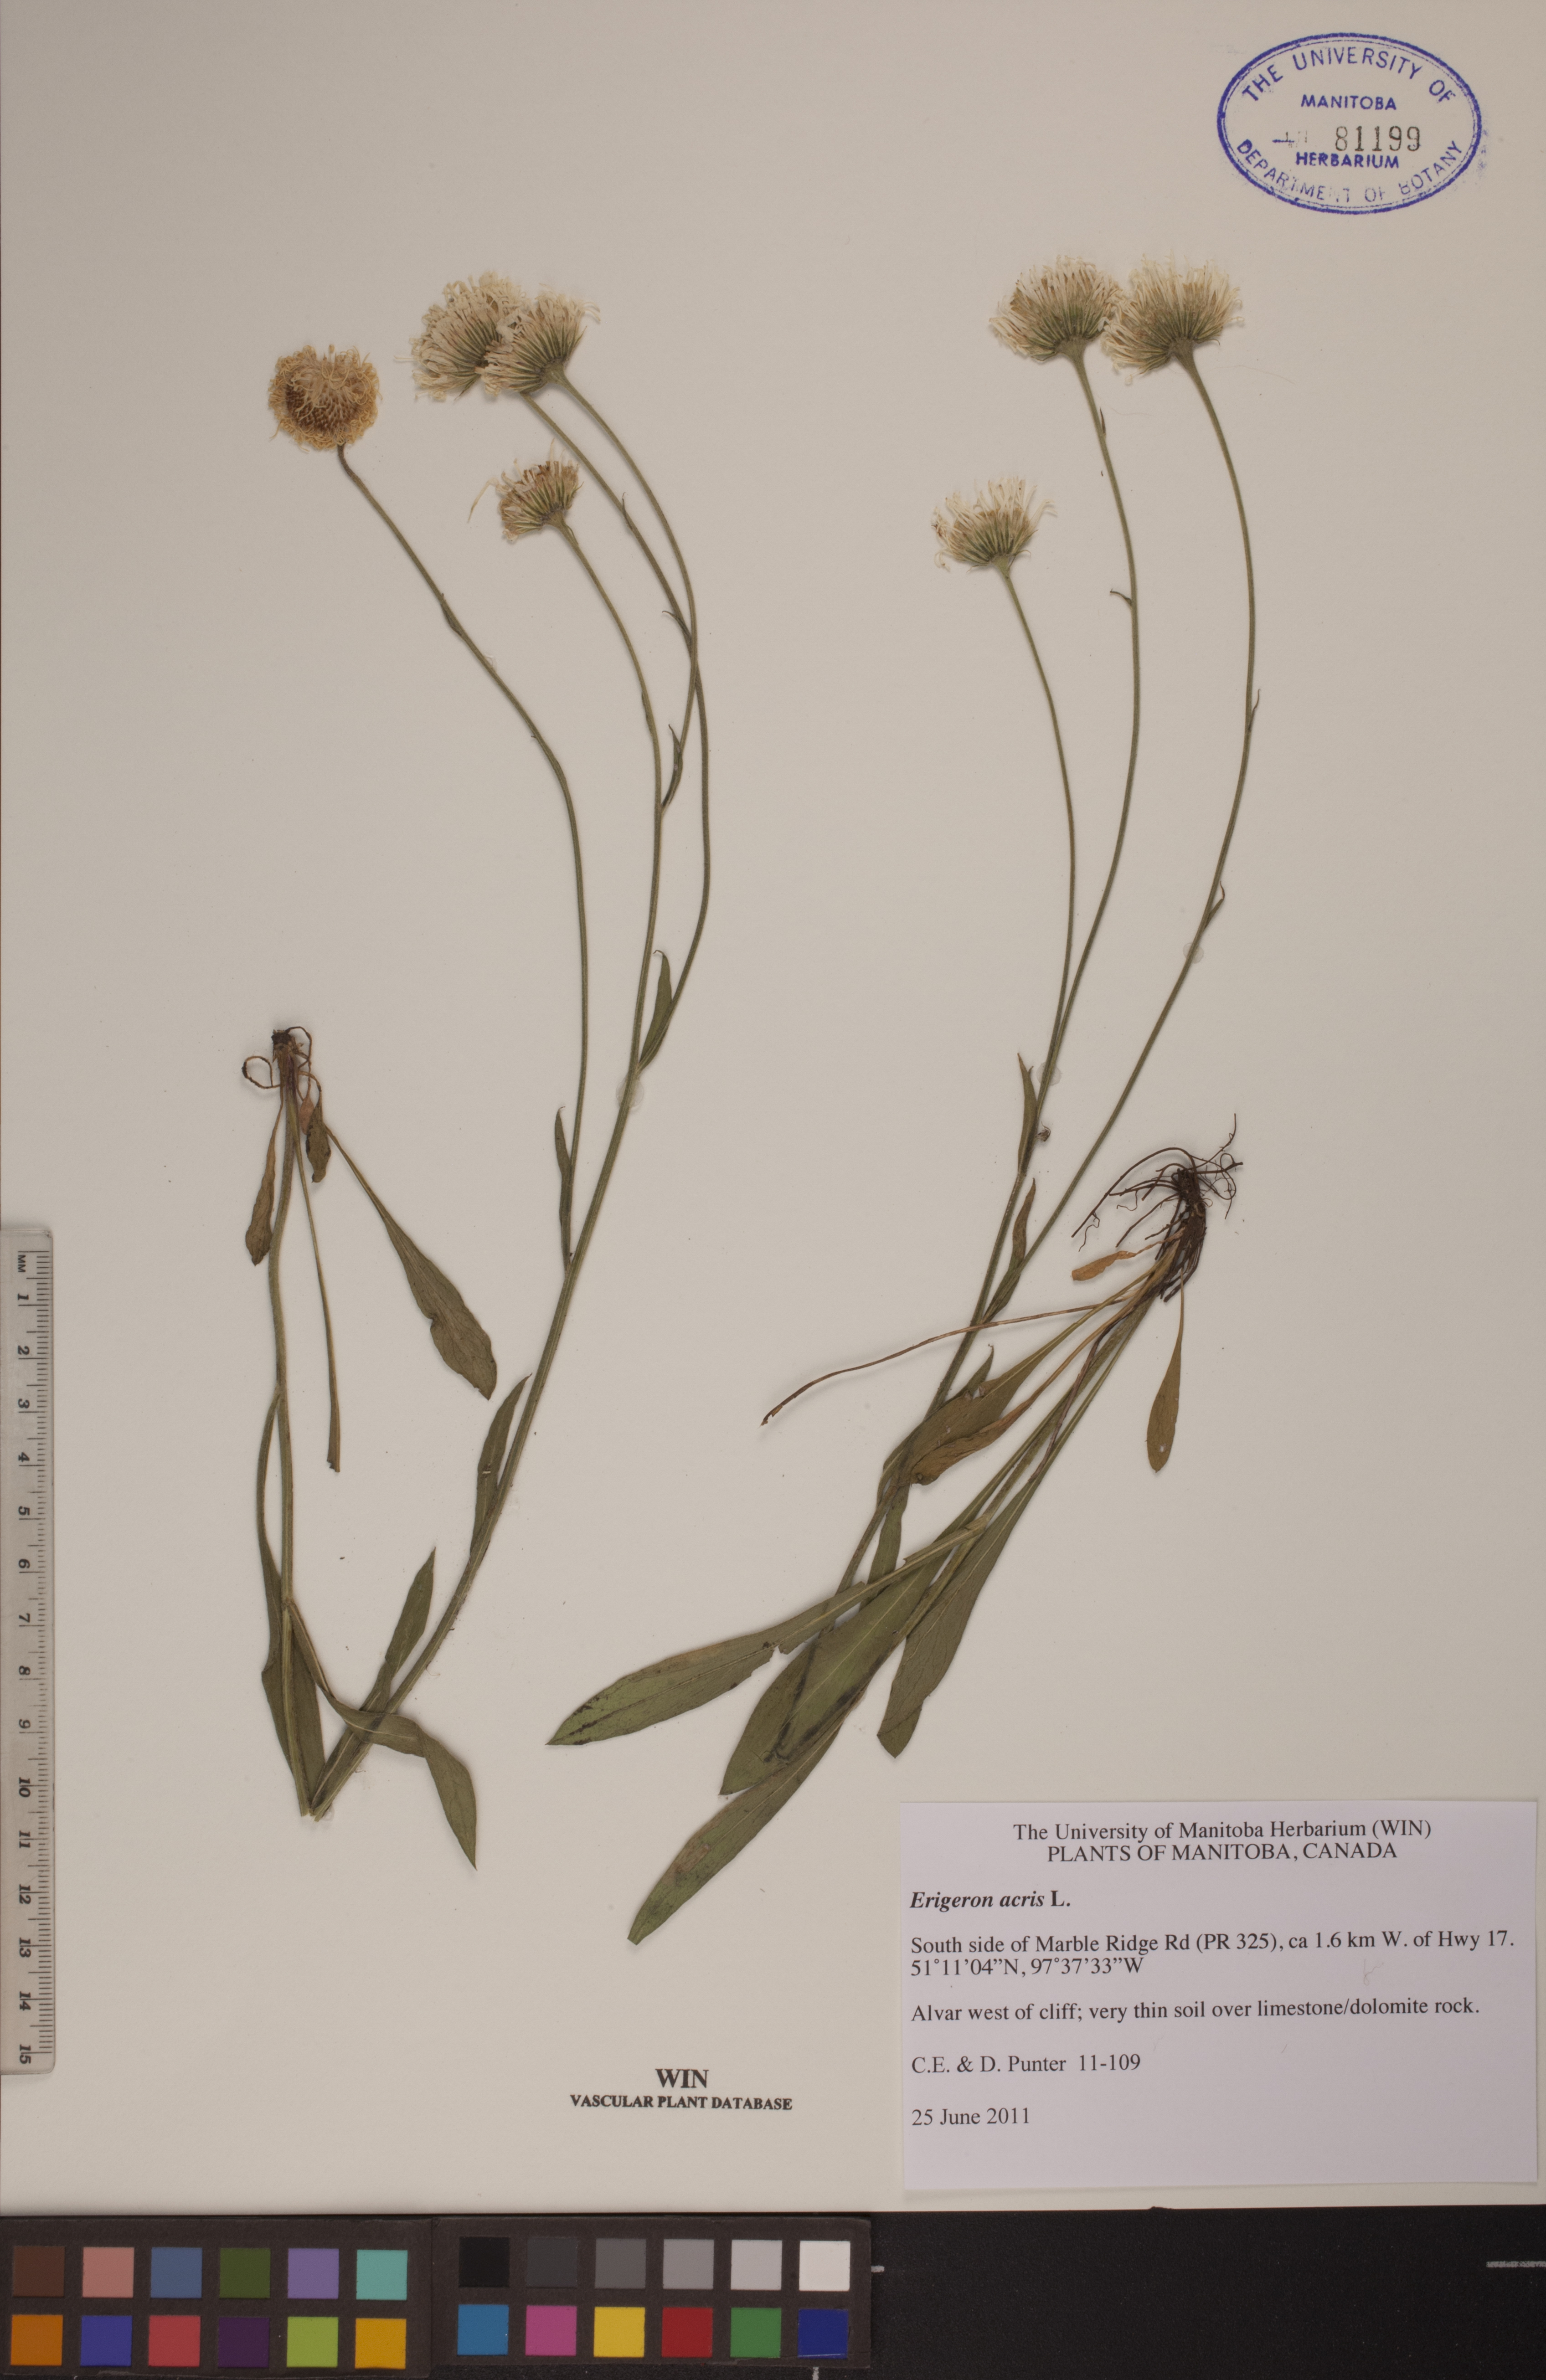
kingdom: Plantae
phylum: Tracheophyta
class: Magnoliopsida
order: Asterales
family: Asteraceae
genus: Erigeron
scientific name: Erigeron acris
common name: Blue fleabane
